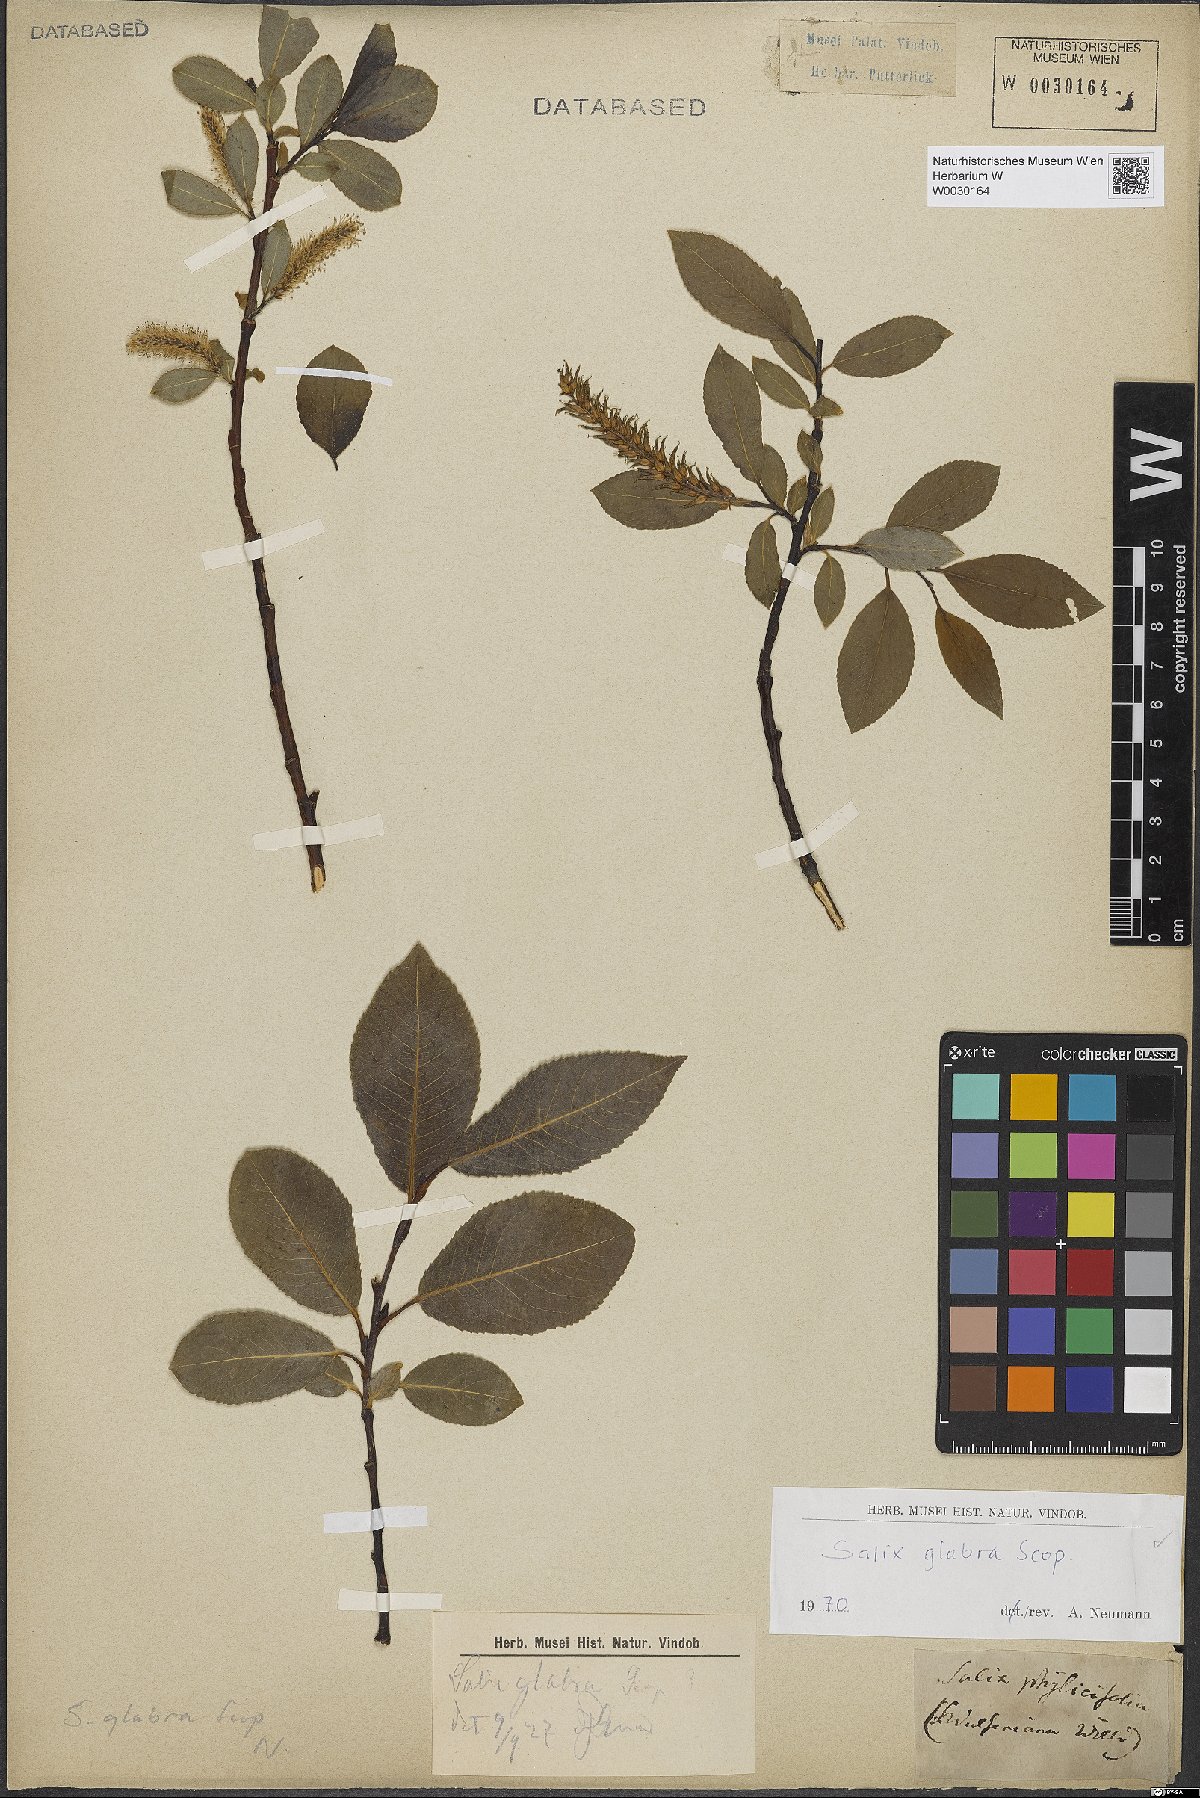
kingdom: Plantae
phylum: Tracheophyta
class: Magnoliopsida
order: Malpighiales
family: Salicaceae
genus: Salix
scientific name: Salix glabra
